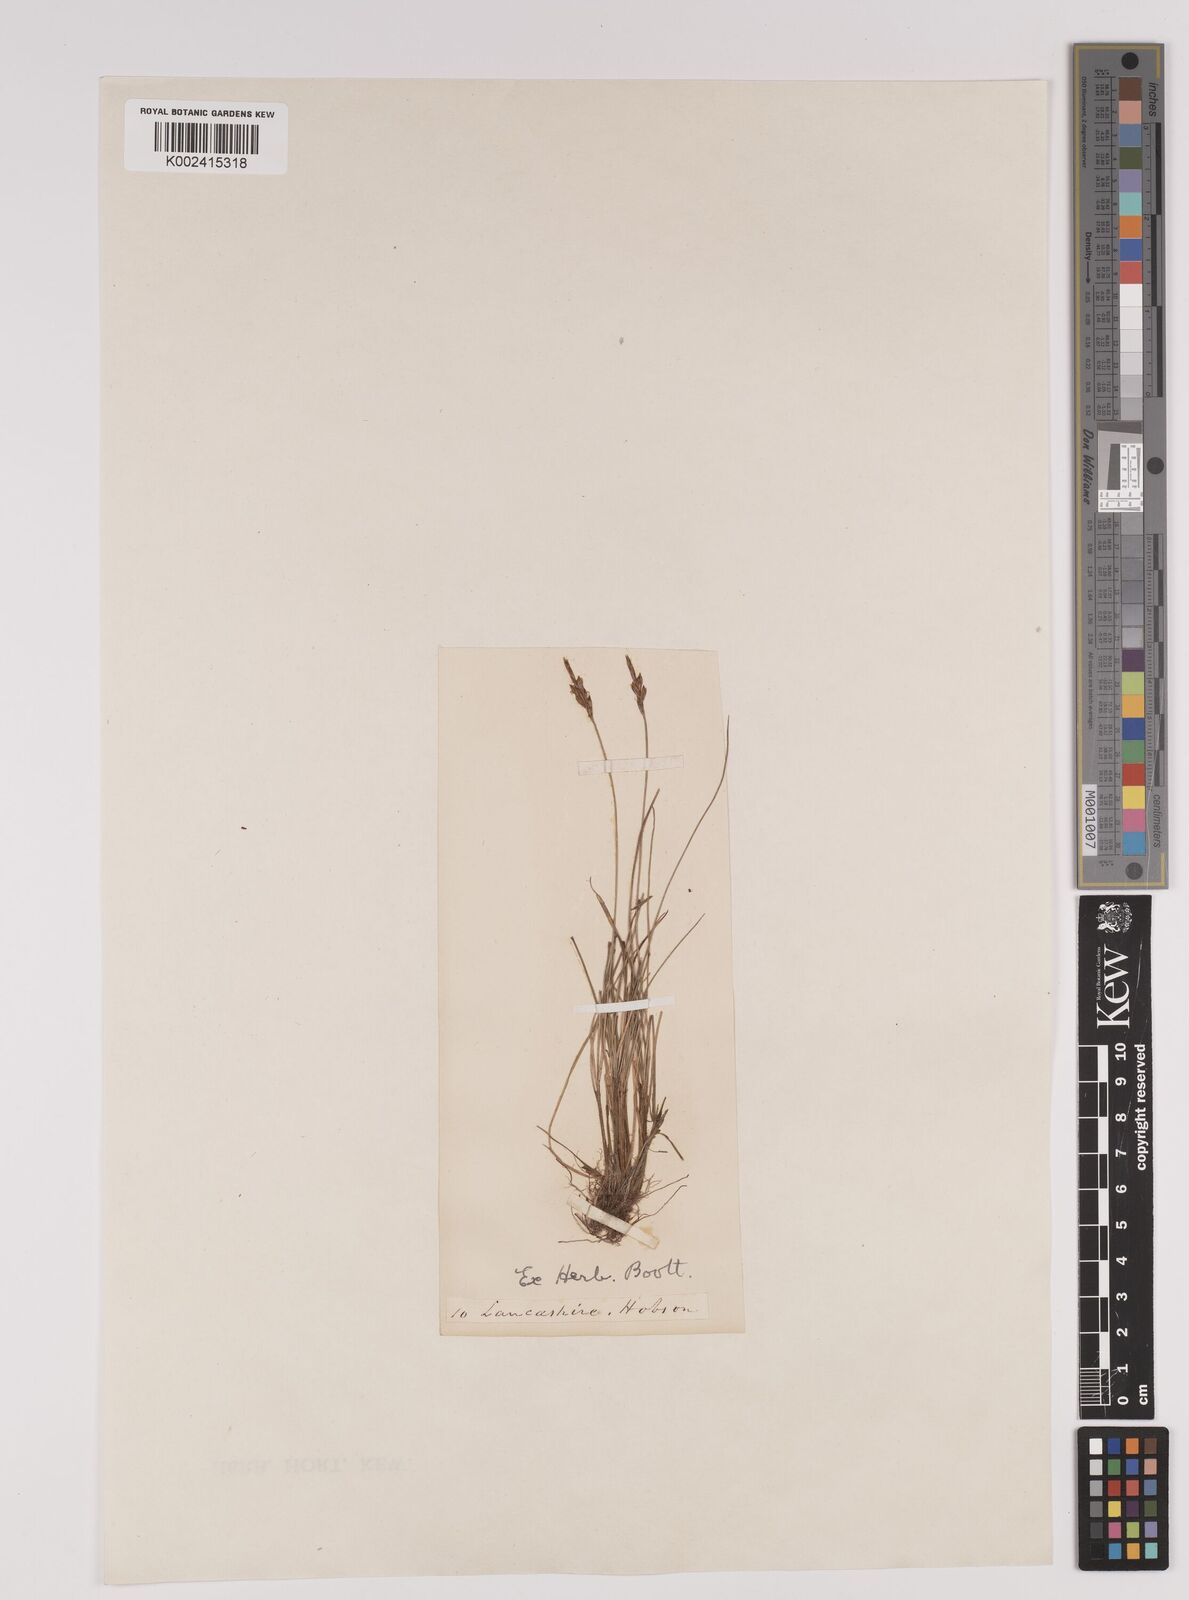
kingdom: Plantae
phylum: Tracheophyta
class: Liliopsida
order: Poales
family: Cyperaceae
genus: Carex
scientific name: Carex pulicaris
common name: Flea sedge
